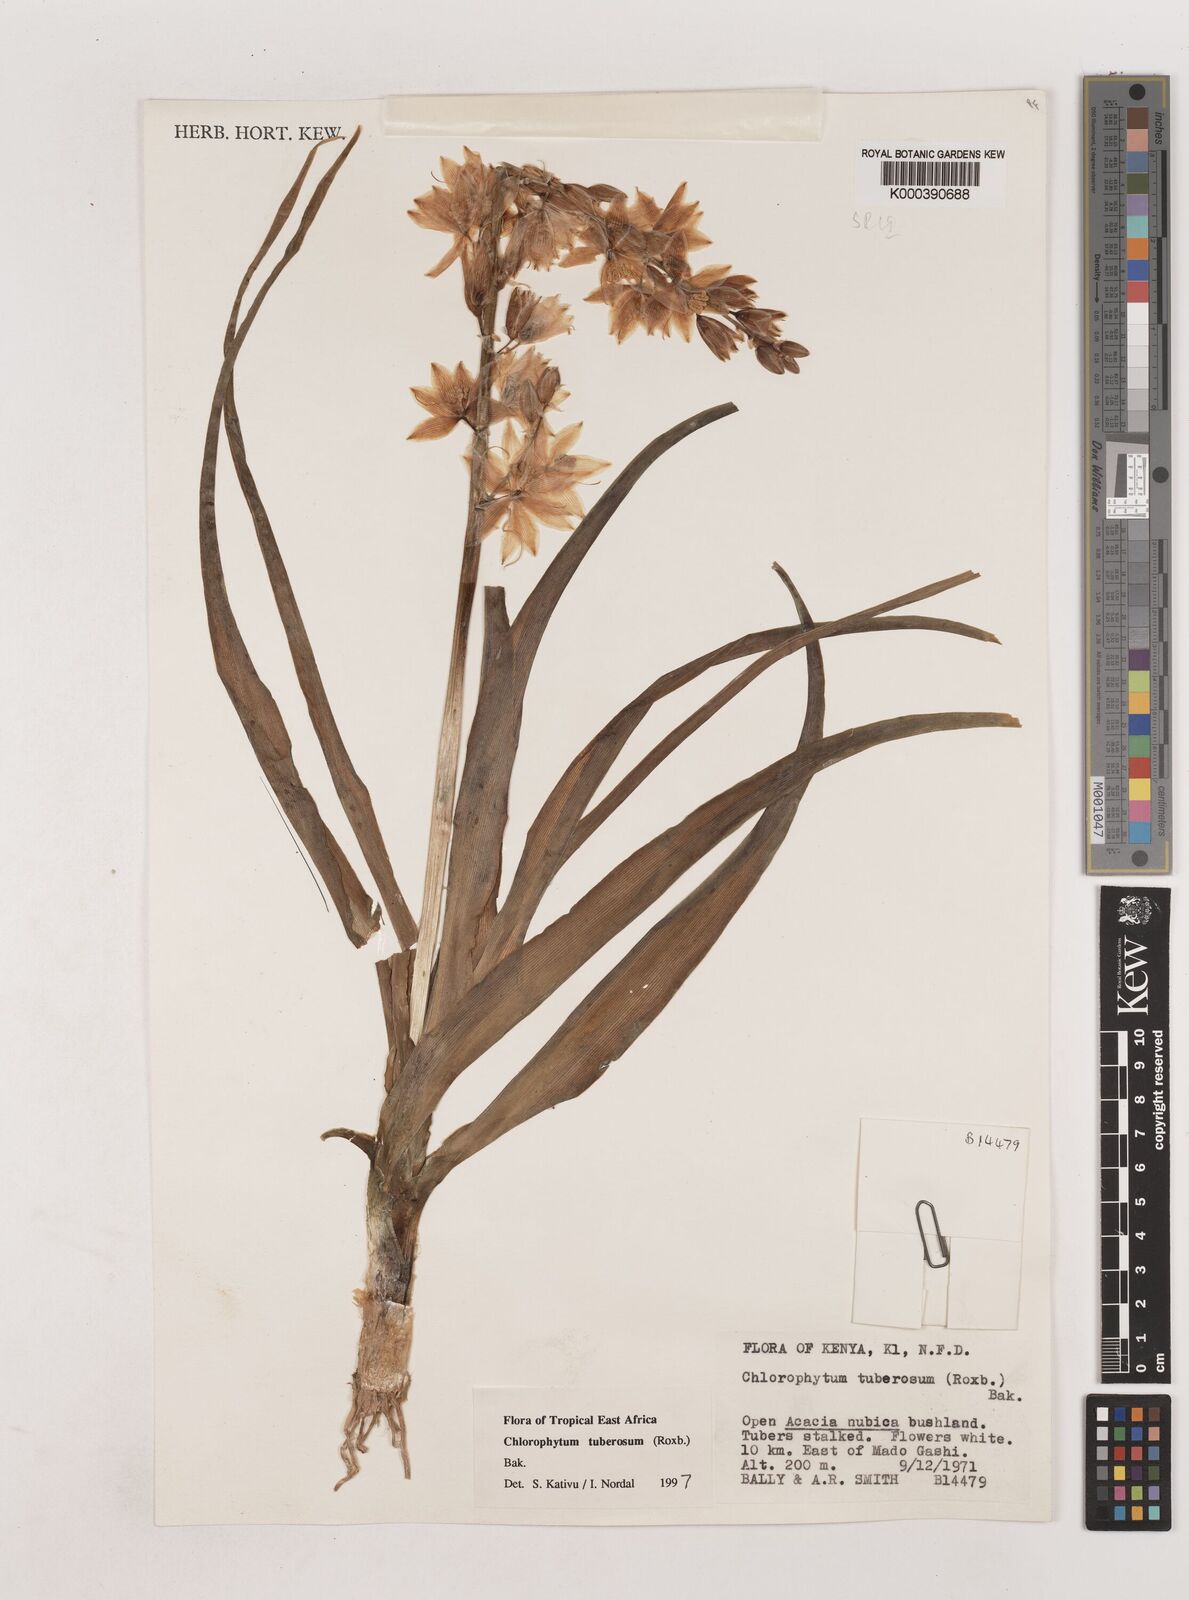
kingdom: Plantae
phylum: Tracheophyta
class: Liliopsida
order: Asparagales
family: Asparagaceae
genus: Chlorophytum
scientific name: Chlorophytum tuberosum
